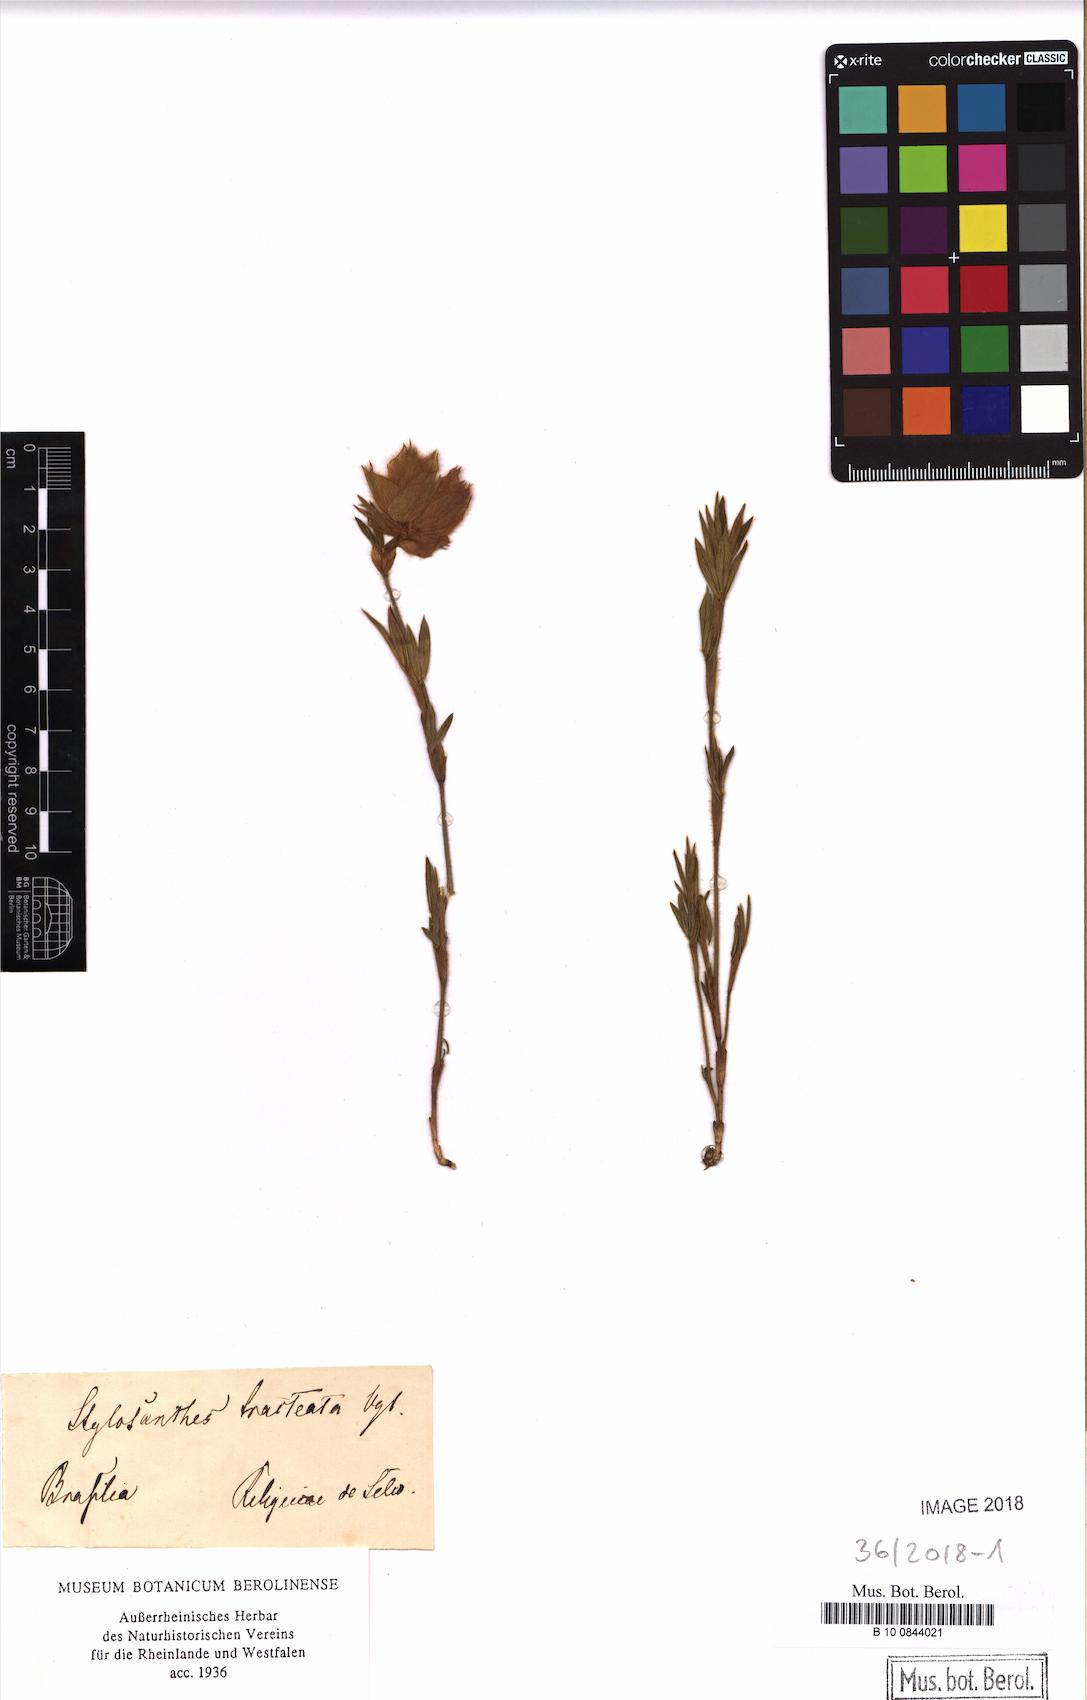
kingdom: Plantae
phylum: Tracheophyta
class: Magnoliopsida
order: Fabales
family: Fabaceae
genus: Stylosanthes
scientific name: Stylosanthes bracteata
